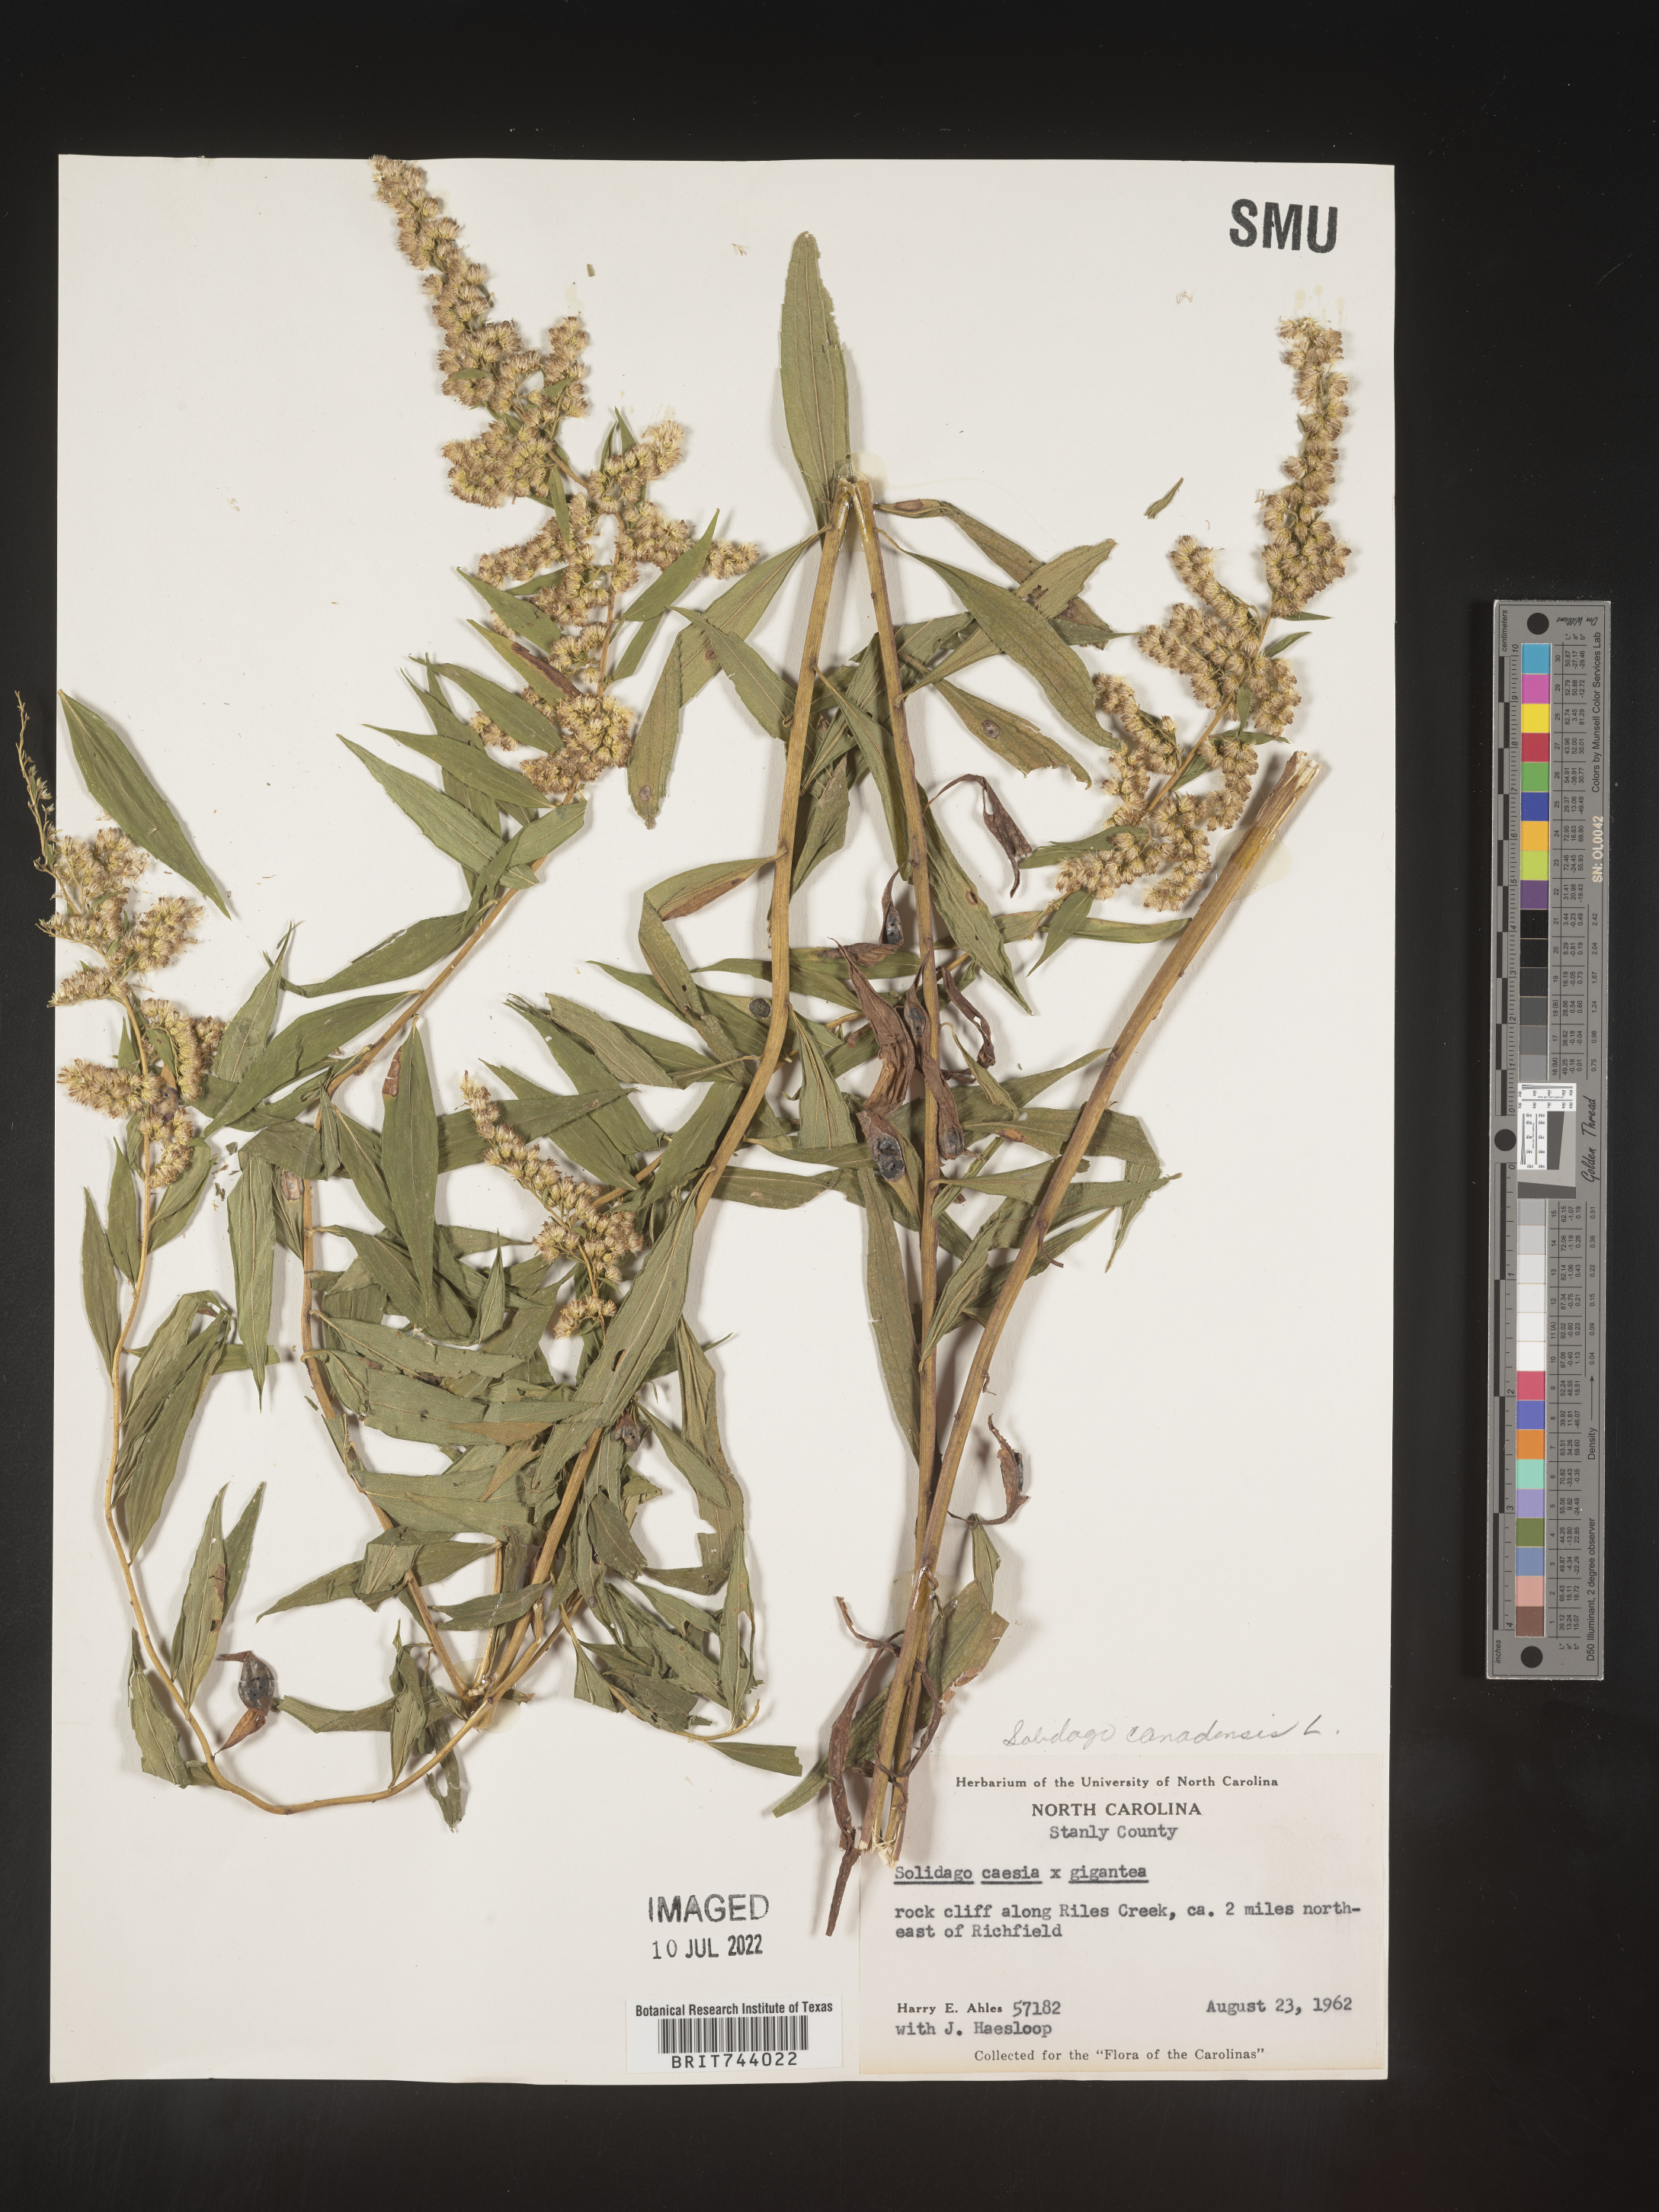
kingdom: Plantae
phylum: Tracheophyta
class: Magnoliopsida
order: Asterales
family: Asteraceae
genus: Solidago
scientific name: Solidago altissima
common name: Late goldenrod
